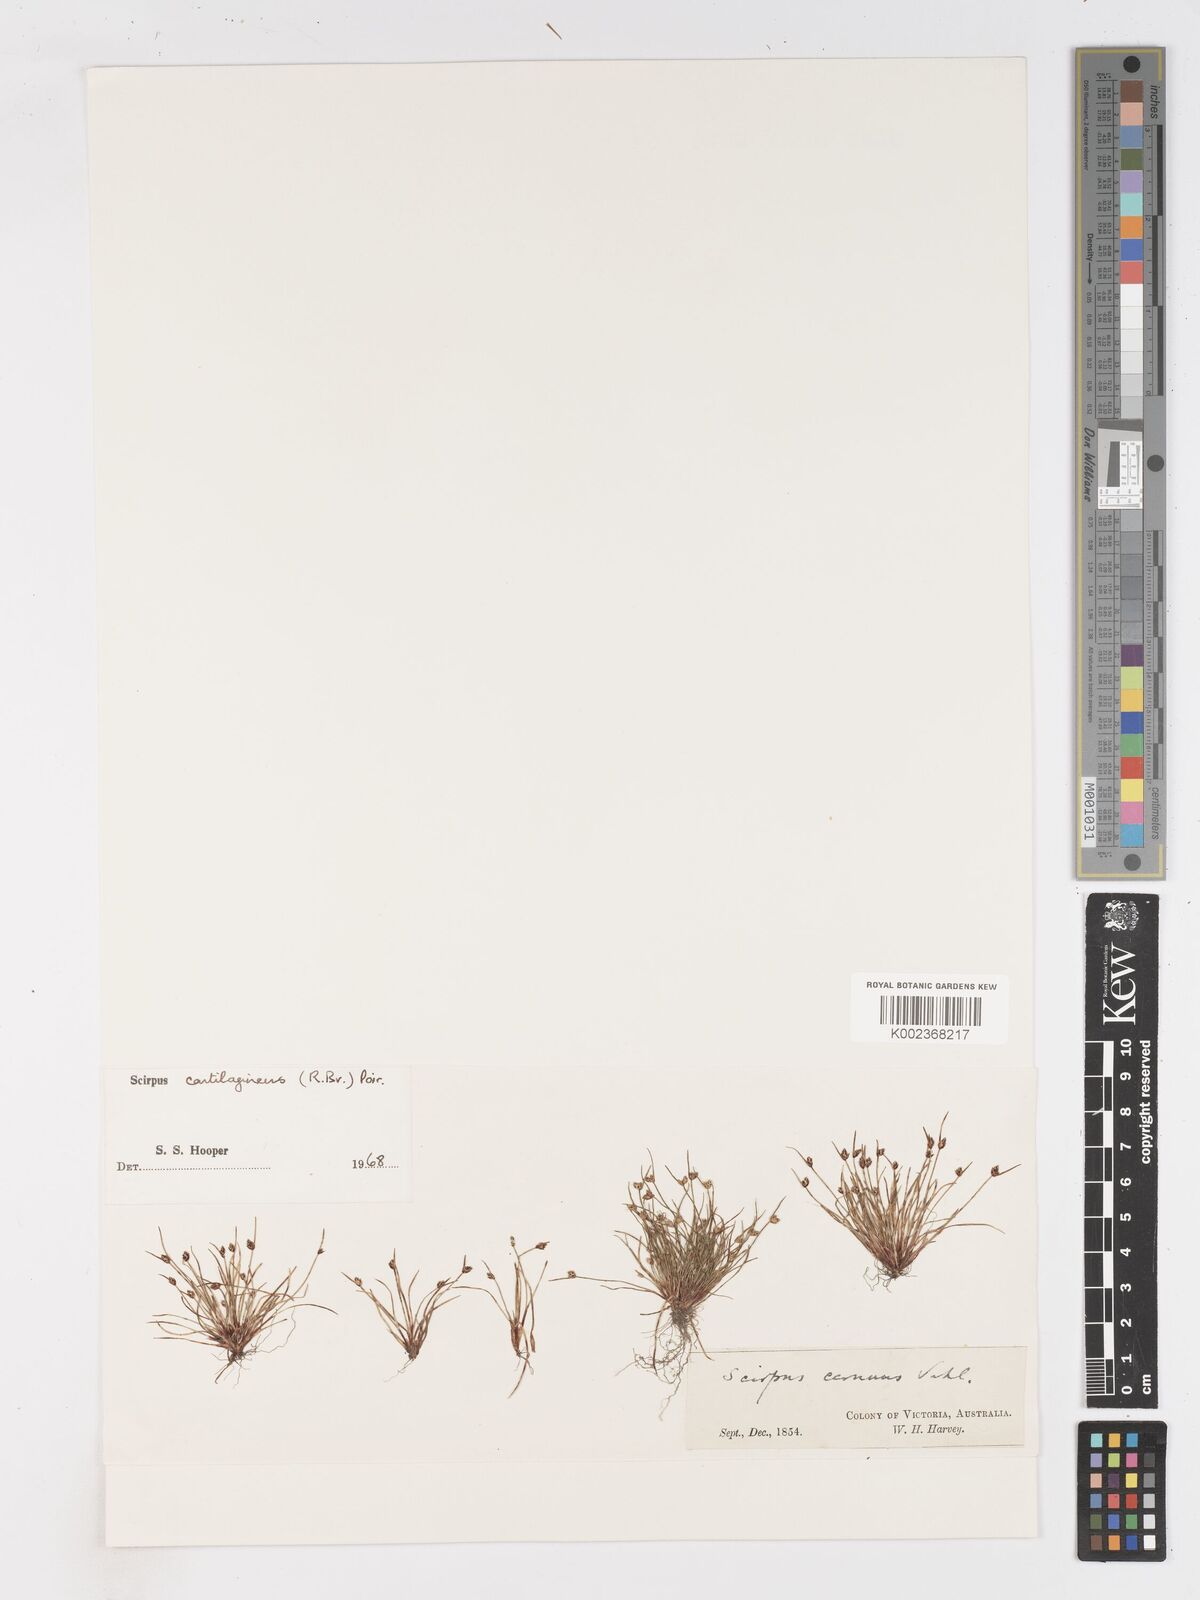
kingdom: Plantae
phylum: Tracheophyta
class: Liliopsida
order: Poales
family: Cyperaceae
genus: Isolepis
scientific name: Isolepis marginata
